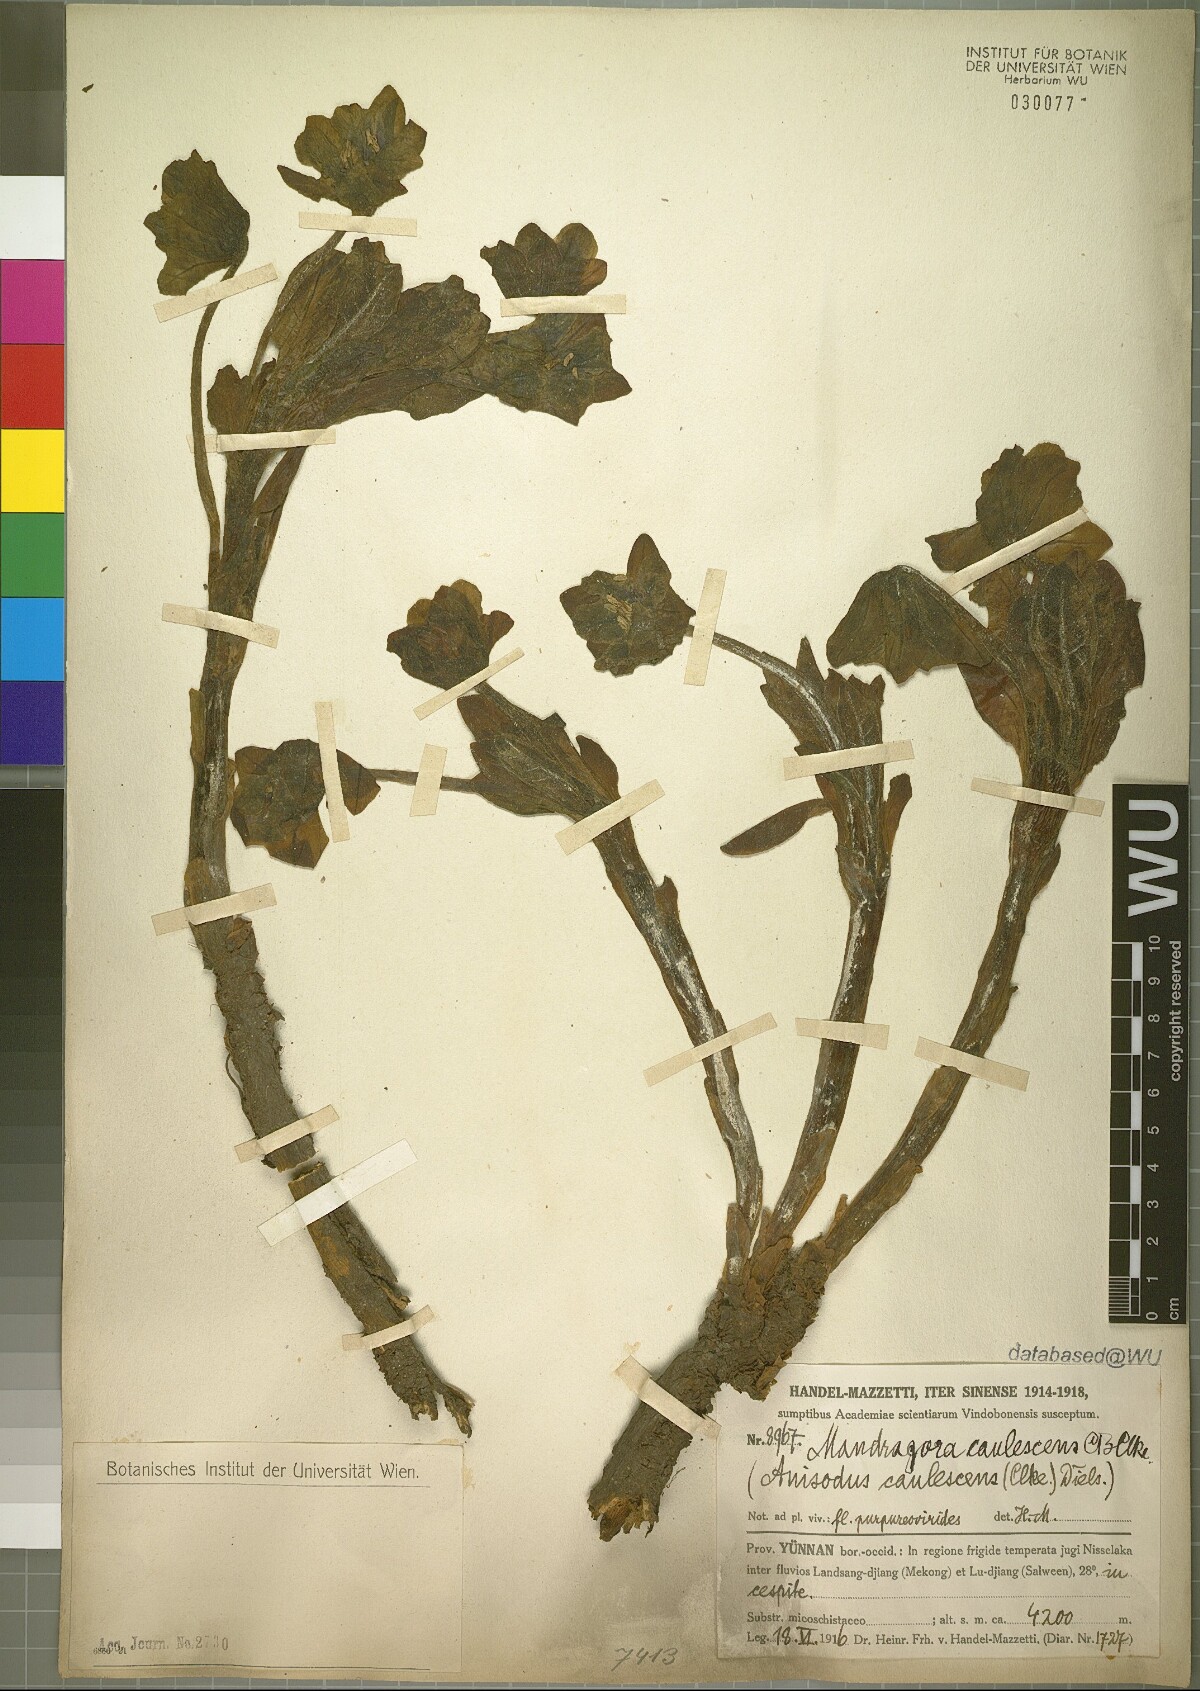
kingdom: Plantae
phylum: Tracheophyta
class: Magnoliopsida
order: Solanales
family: Solanaceae
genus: Mandragora
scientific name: Mandragora caulescens
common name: Himalayan mandrake
